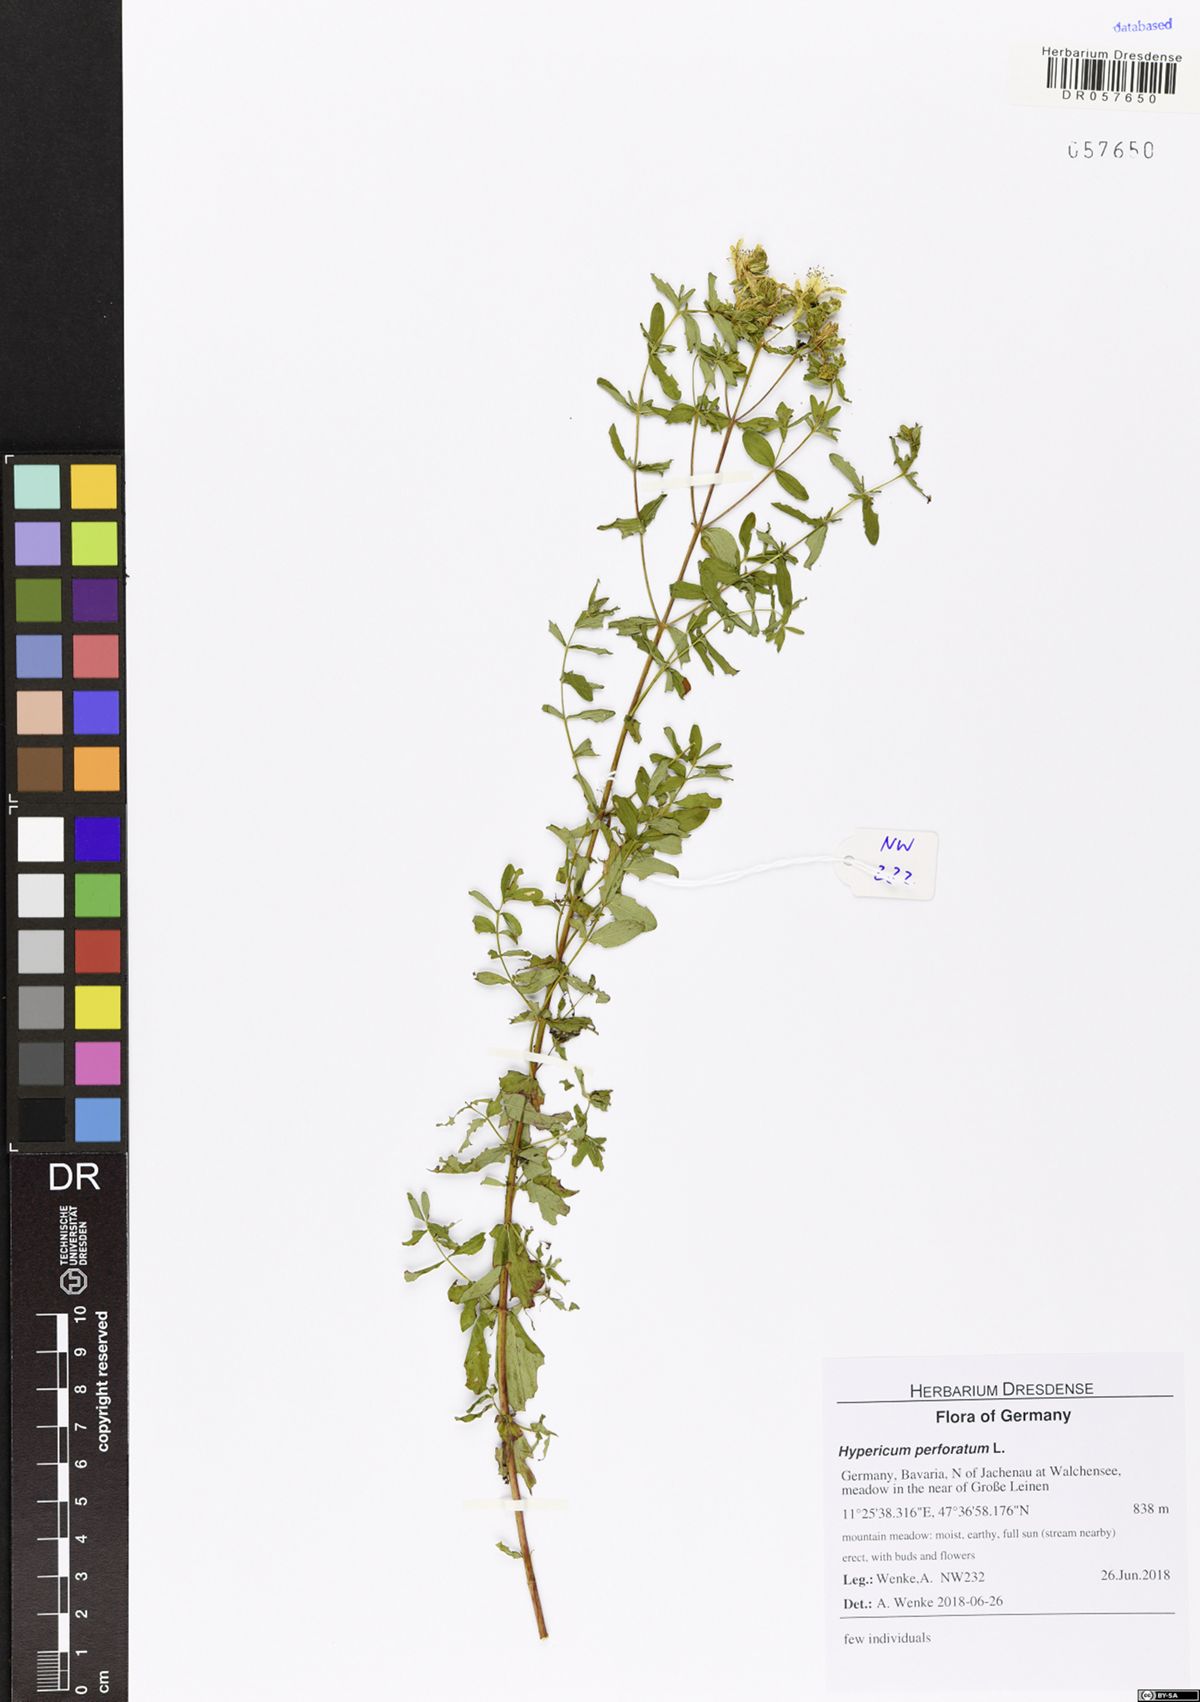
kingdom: Plantae
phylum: Tracheophyta
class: Magnoliopsida
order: Malpighiales
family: Hypericaceae
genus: Hypericum
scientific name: Hypericum perforatum
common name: Common st. johnswort
